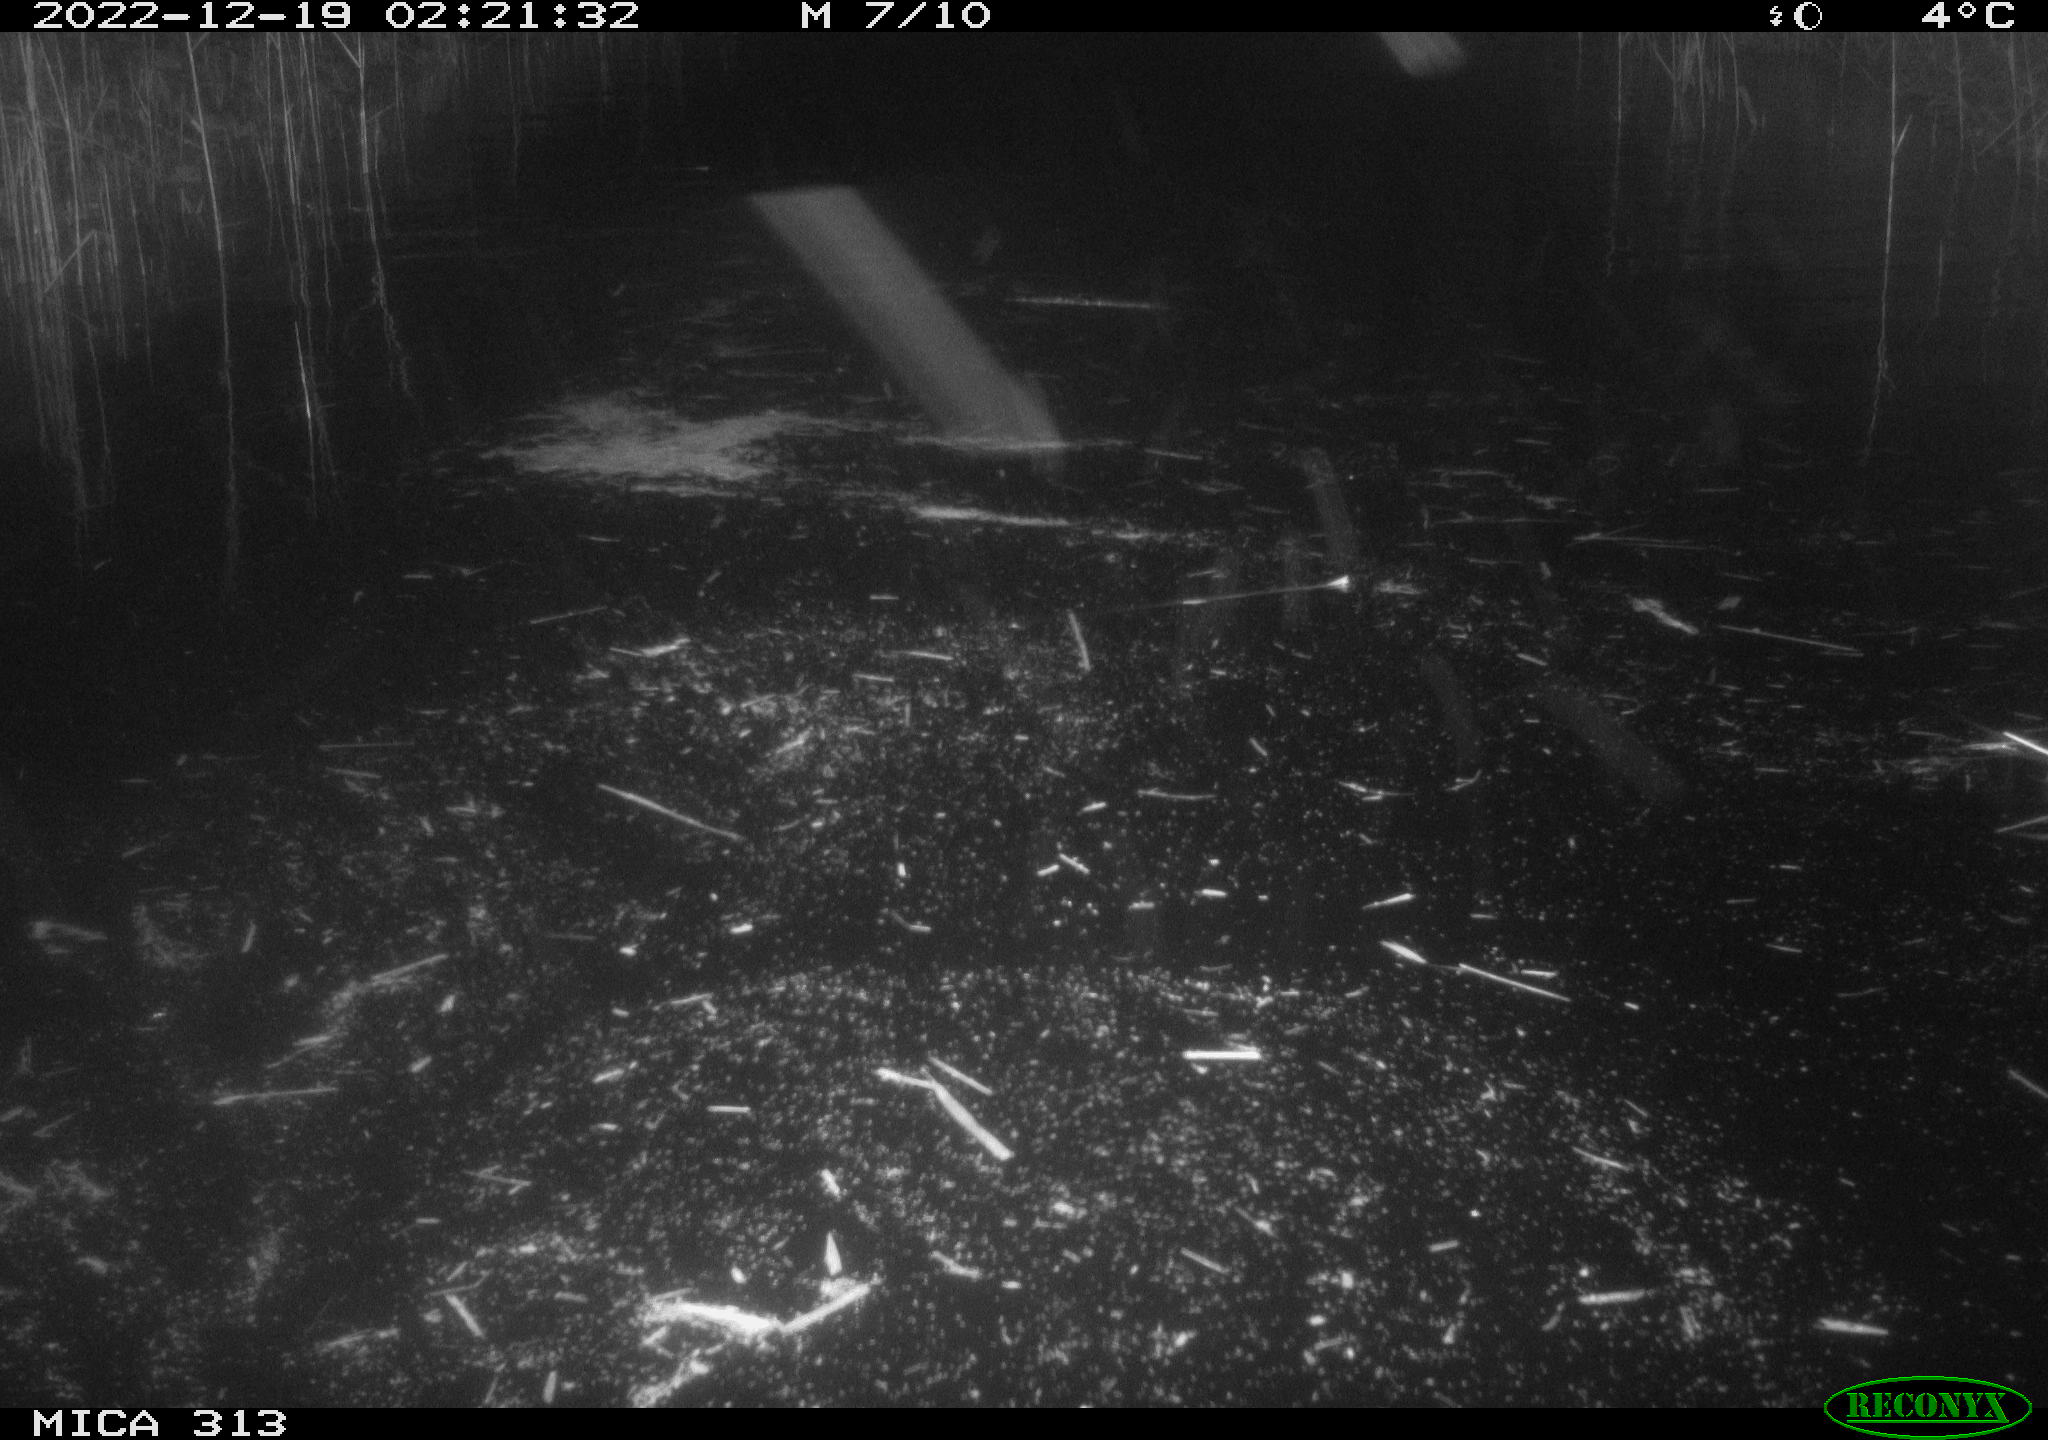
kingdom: Animalia
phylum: Chordata
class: Aves
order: Gruiformes
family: Rallidae
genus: Gallinula
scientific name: Gallinula chloropus
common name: Common moorhen
